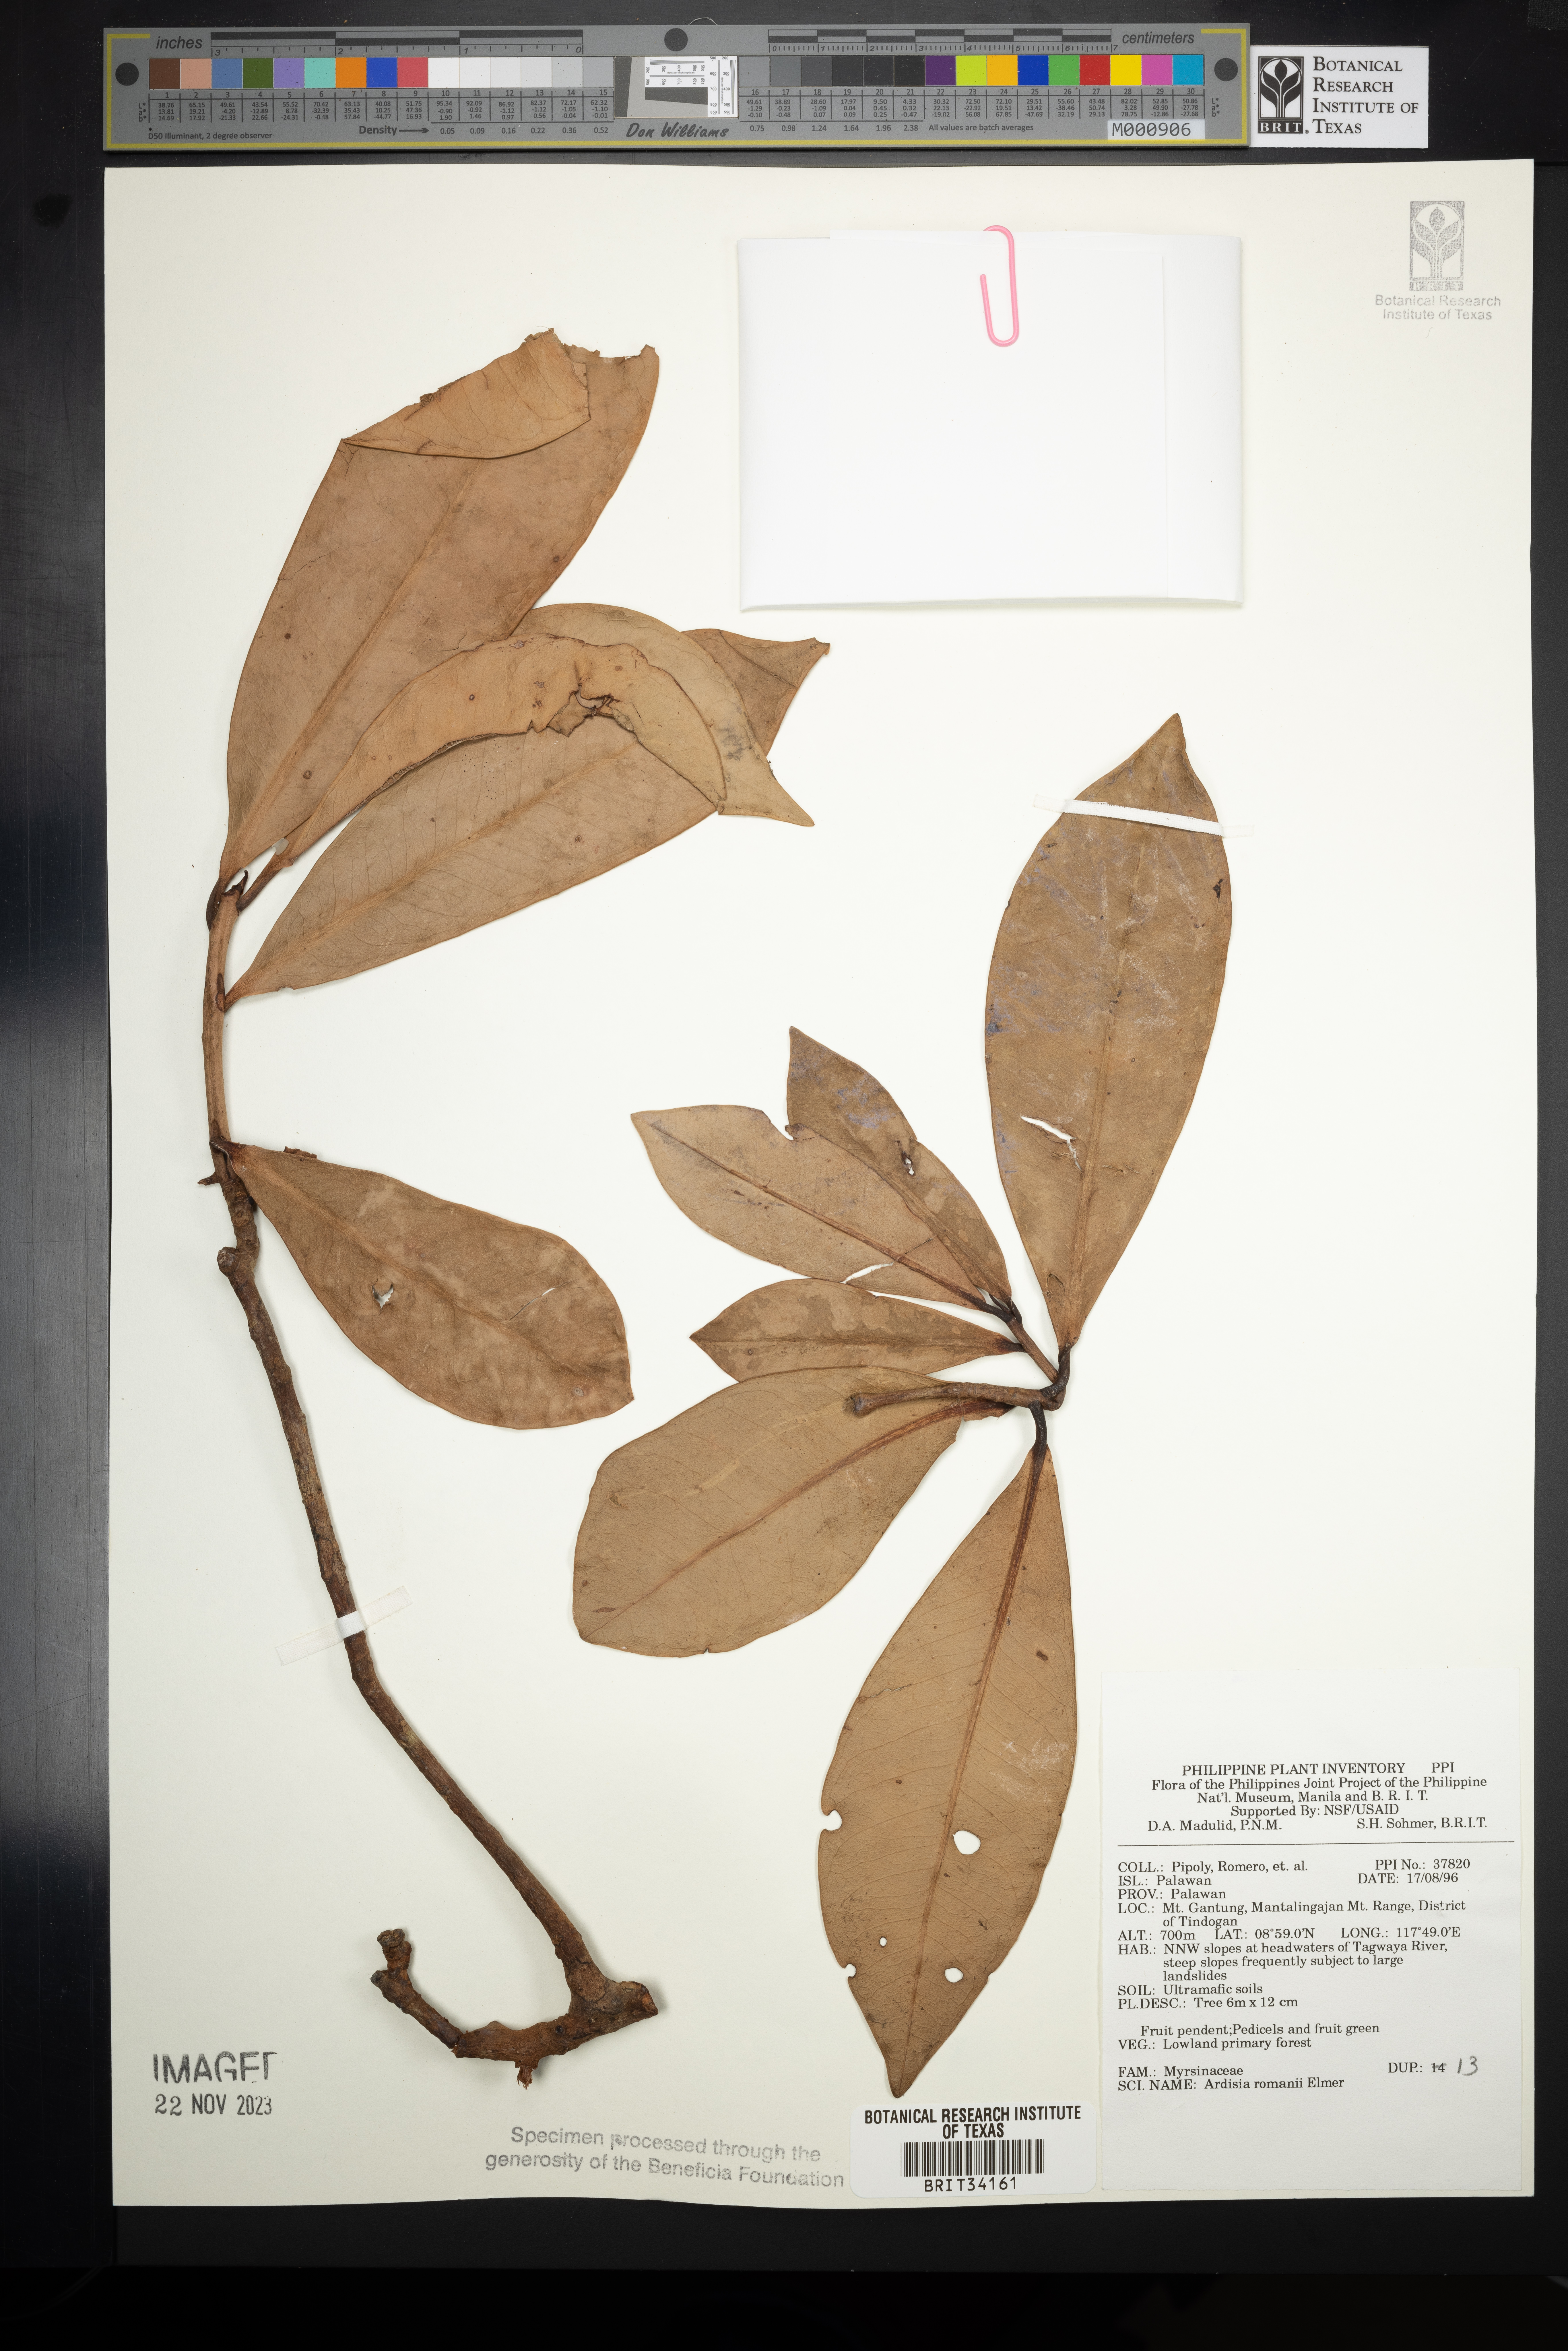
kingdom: Plantae
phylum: Tracheophyta
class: Magnoliopsida
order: Ericales
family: Primulaceae
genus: Ardisia
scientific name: Ardisia romanii
